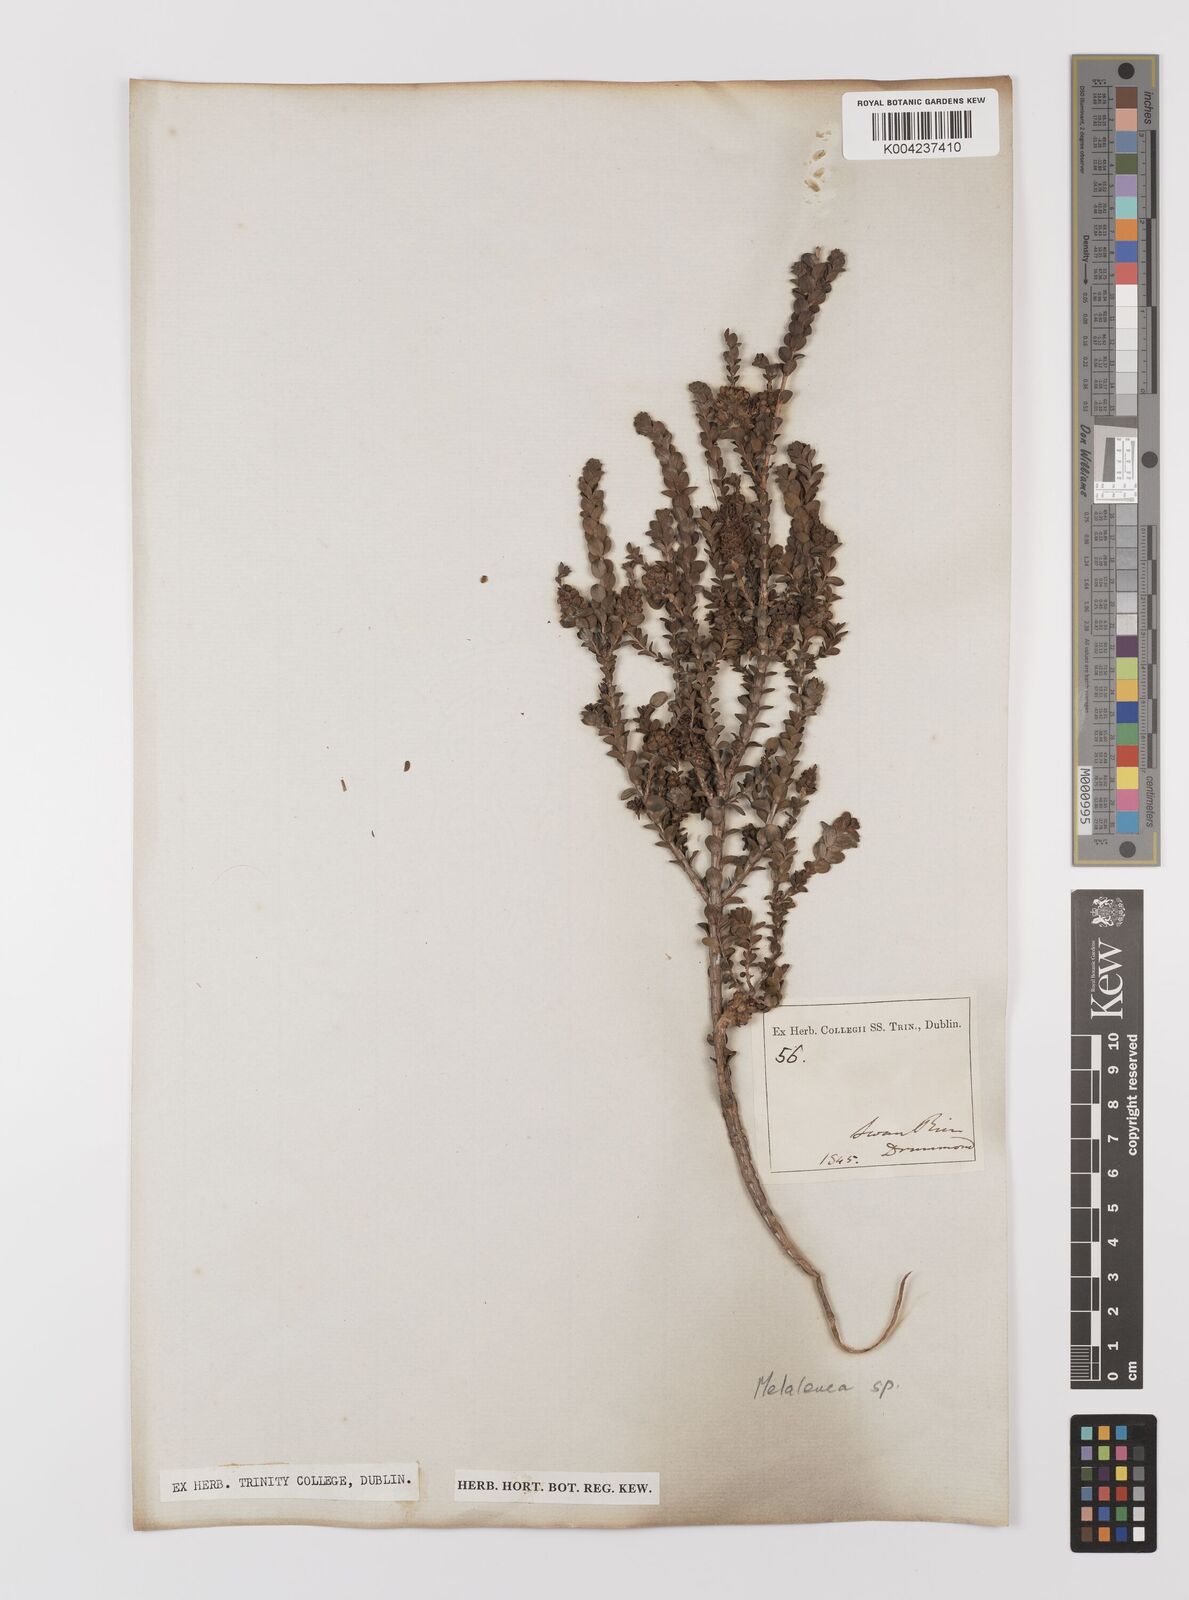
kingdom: Plantae
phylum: Tracheophyta
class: Magnoliopsida
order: Myrtales
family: Myrtaceae
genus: Melaleuca
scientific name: Melaleuca
